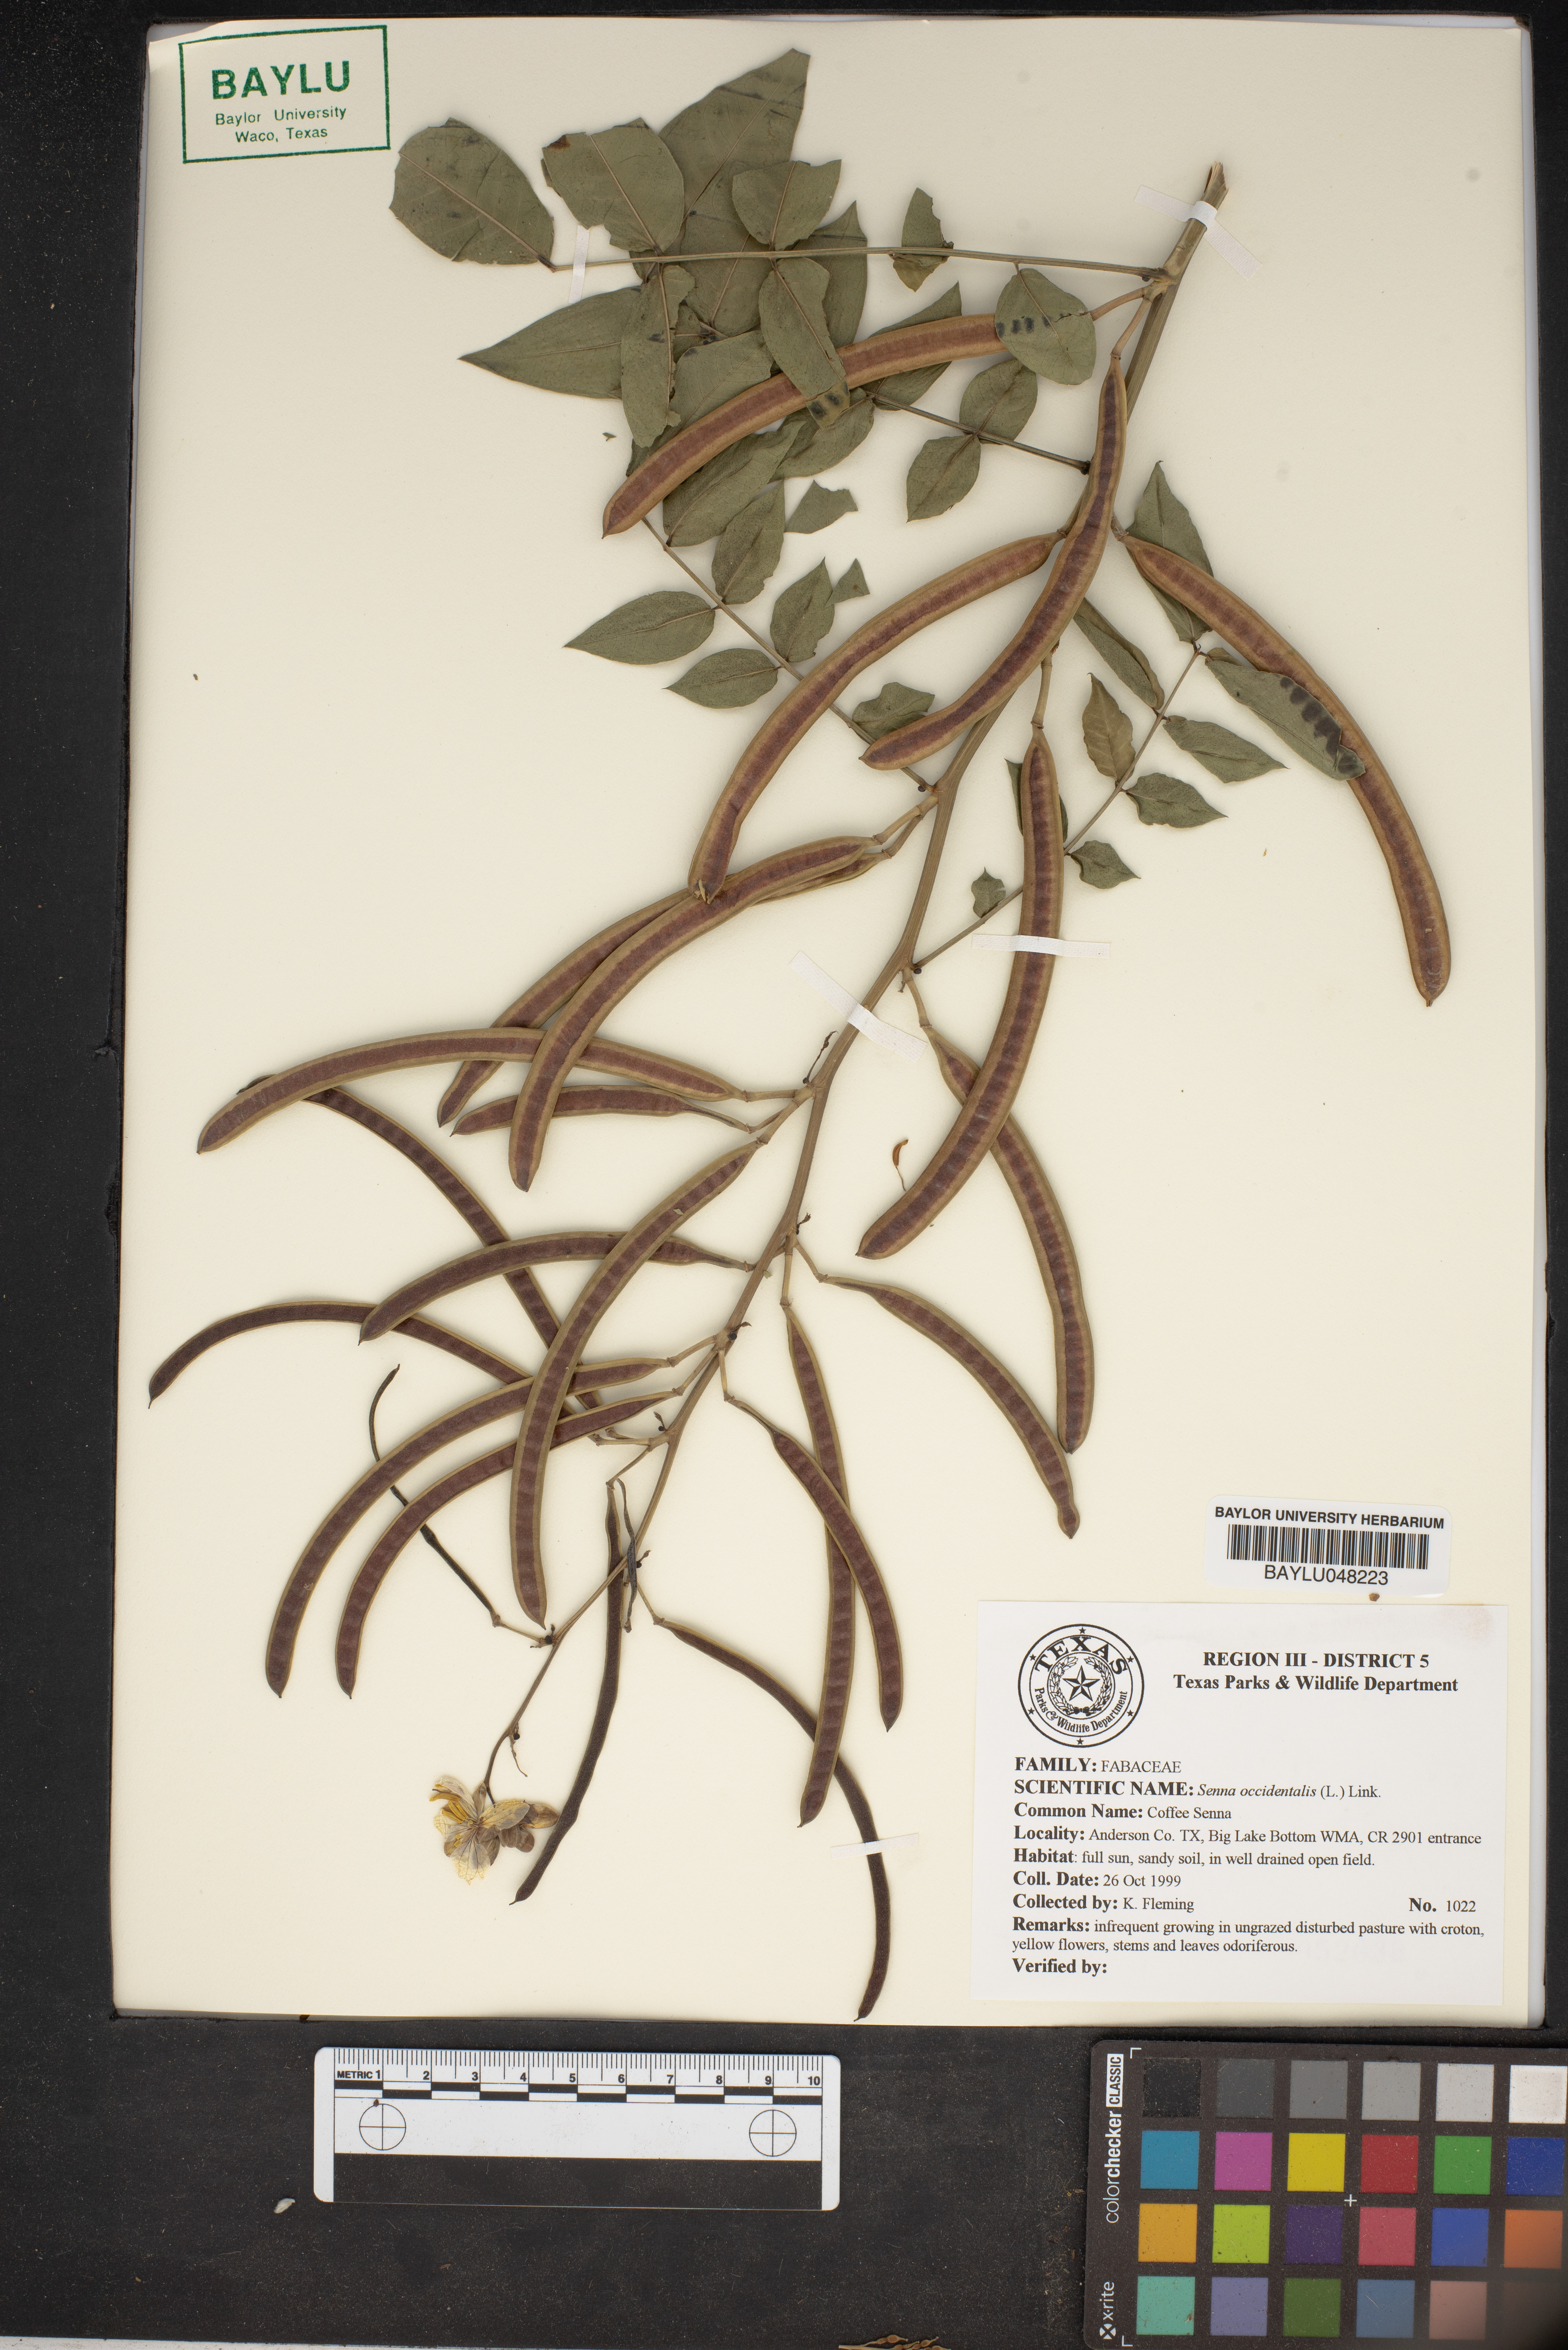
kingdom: Plantae
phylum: Tracheophyta
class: Magnoliopsida
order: Fabales
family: Fabaceae
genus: Senna
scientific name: Senna occidentalis
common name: Septicweed
